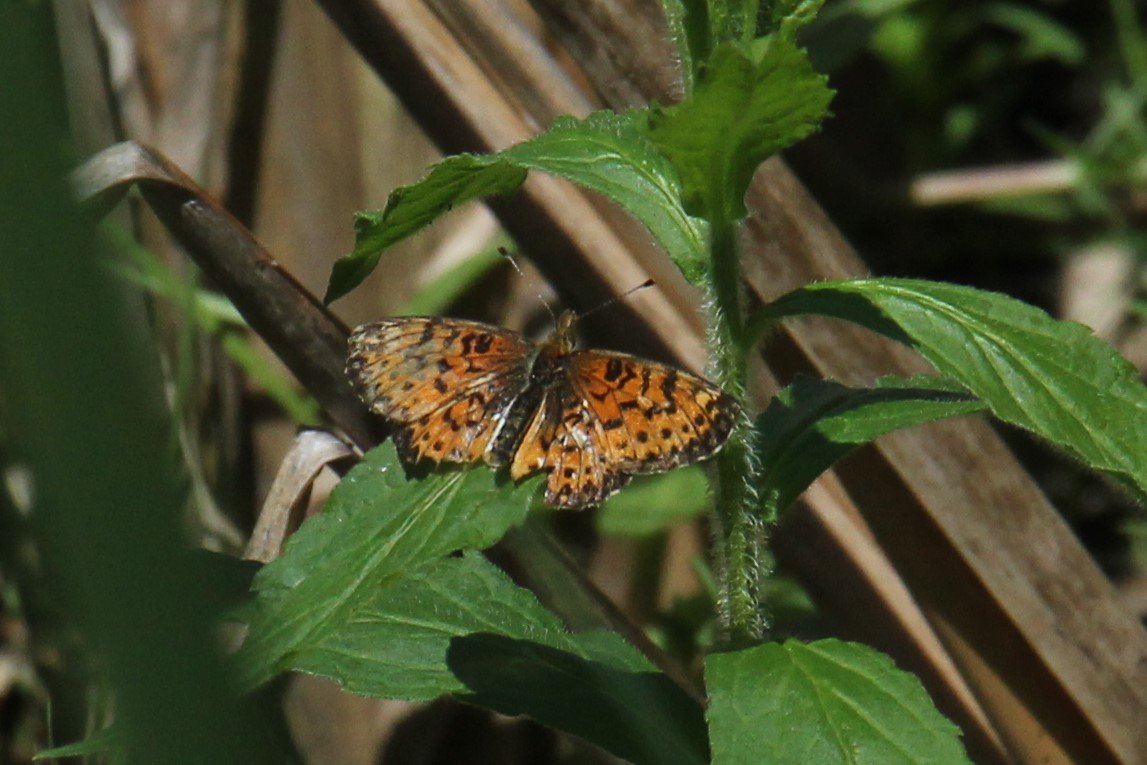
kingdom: Animalia
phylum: Arthropoda
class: Insecta
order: Lepidoptera
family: Nymphalidae
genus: Boloria
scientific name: Boloria selene
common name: Silver-bordered Fritillary
